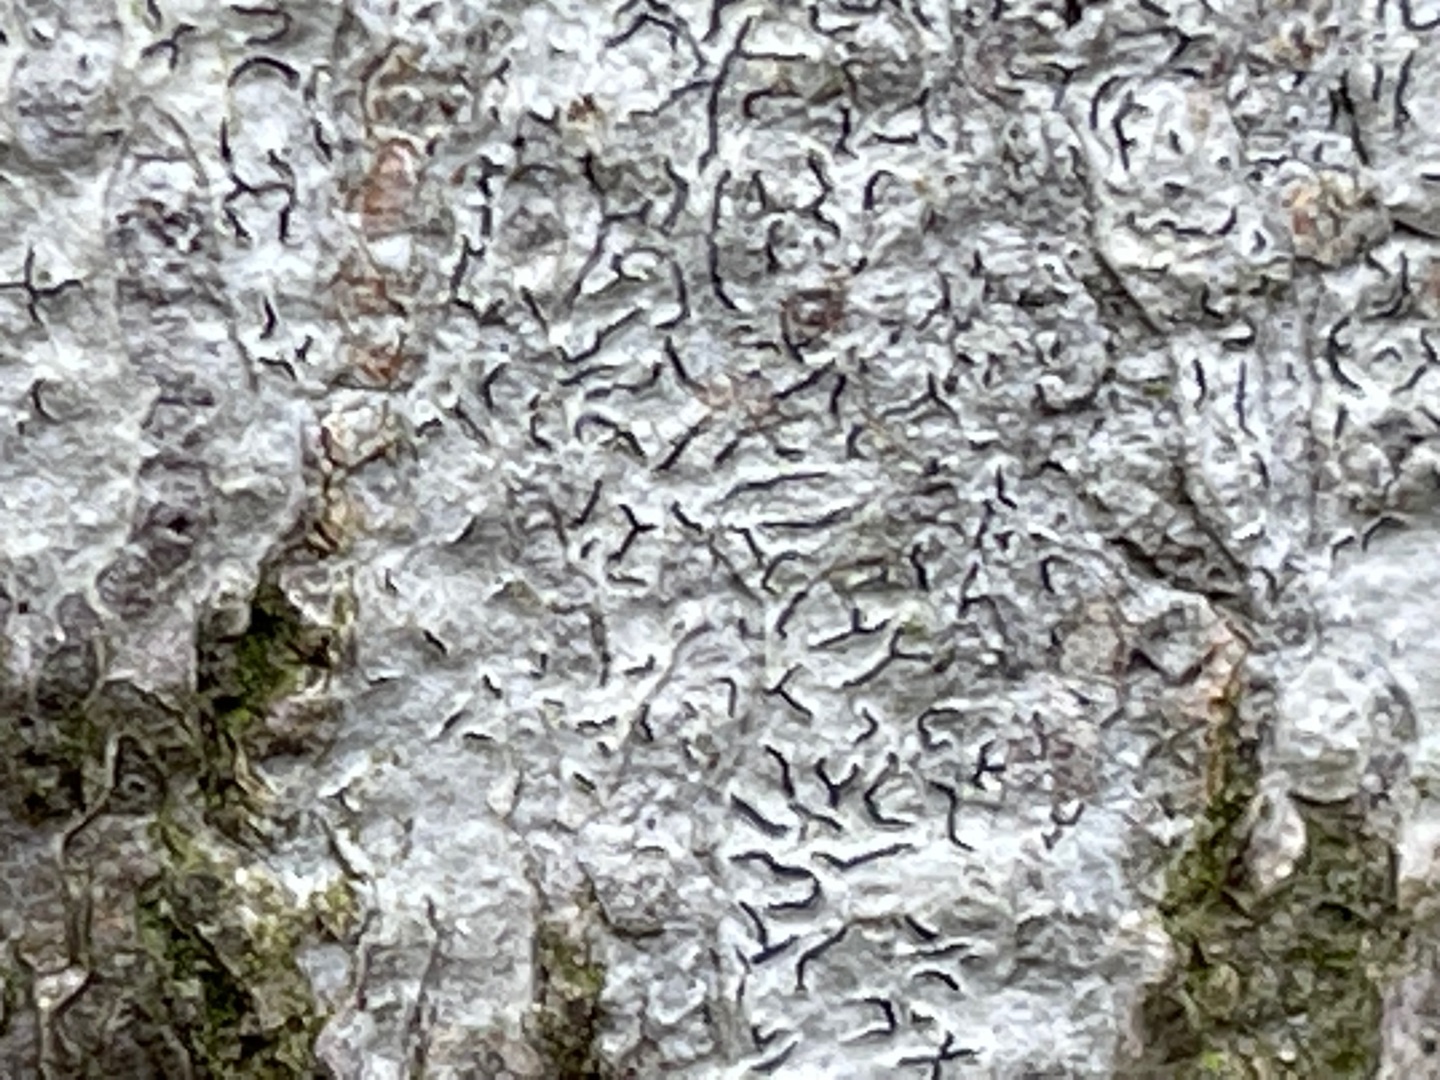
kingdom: Fungi
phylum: Ascomycota
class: Lecanoromycetes
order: Ostropales
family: Graphidaceae
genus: Graphis
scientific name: Graphis scripta
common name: Almindelig skriftlav
